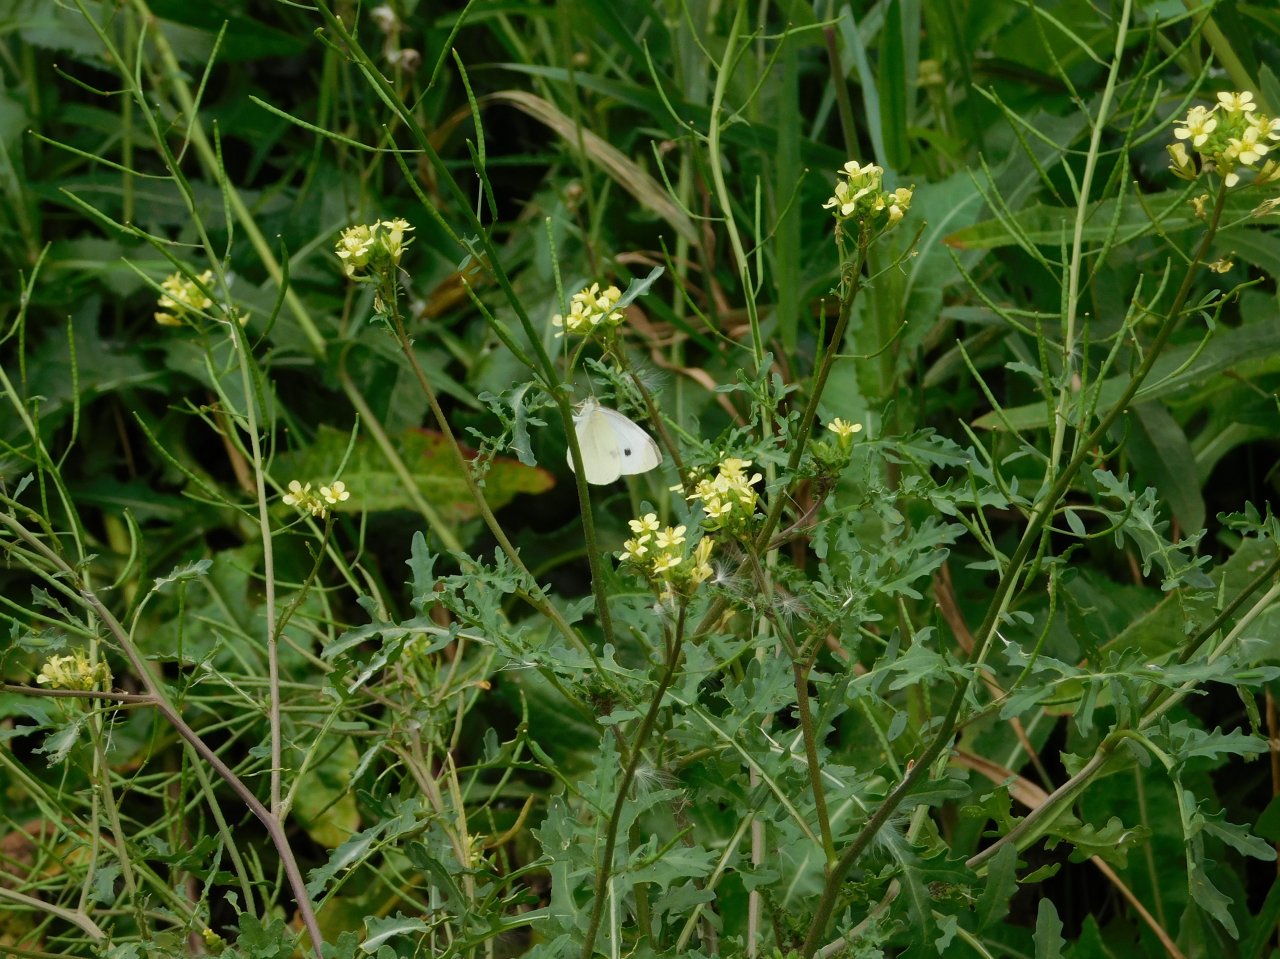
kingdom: Animalia
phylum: Arthropoda
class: Insecta
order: Lepidoptera
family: Pieridae
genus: Pieris
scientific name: Pieris rapae
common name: Cabbage White
